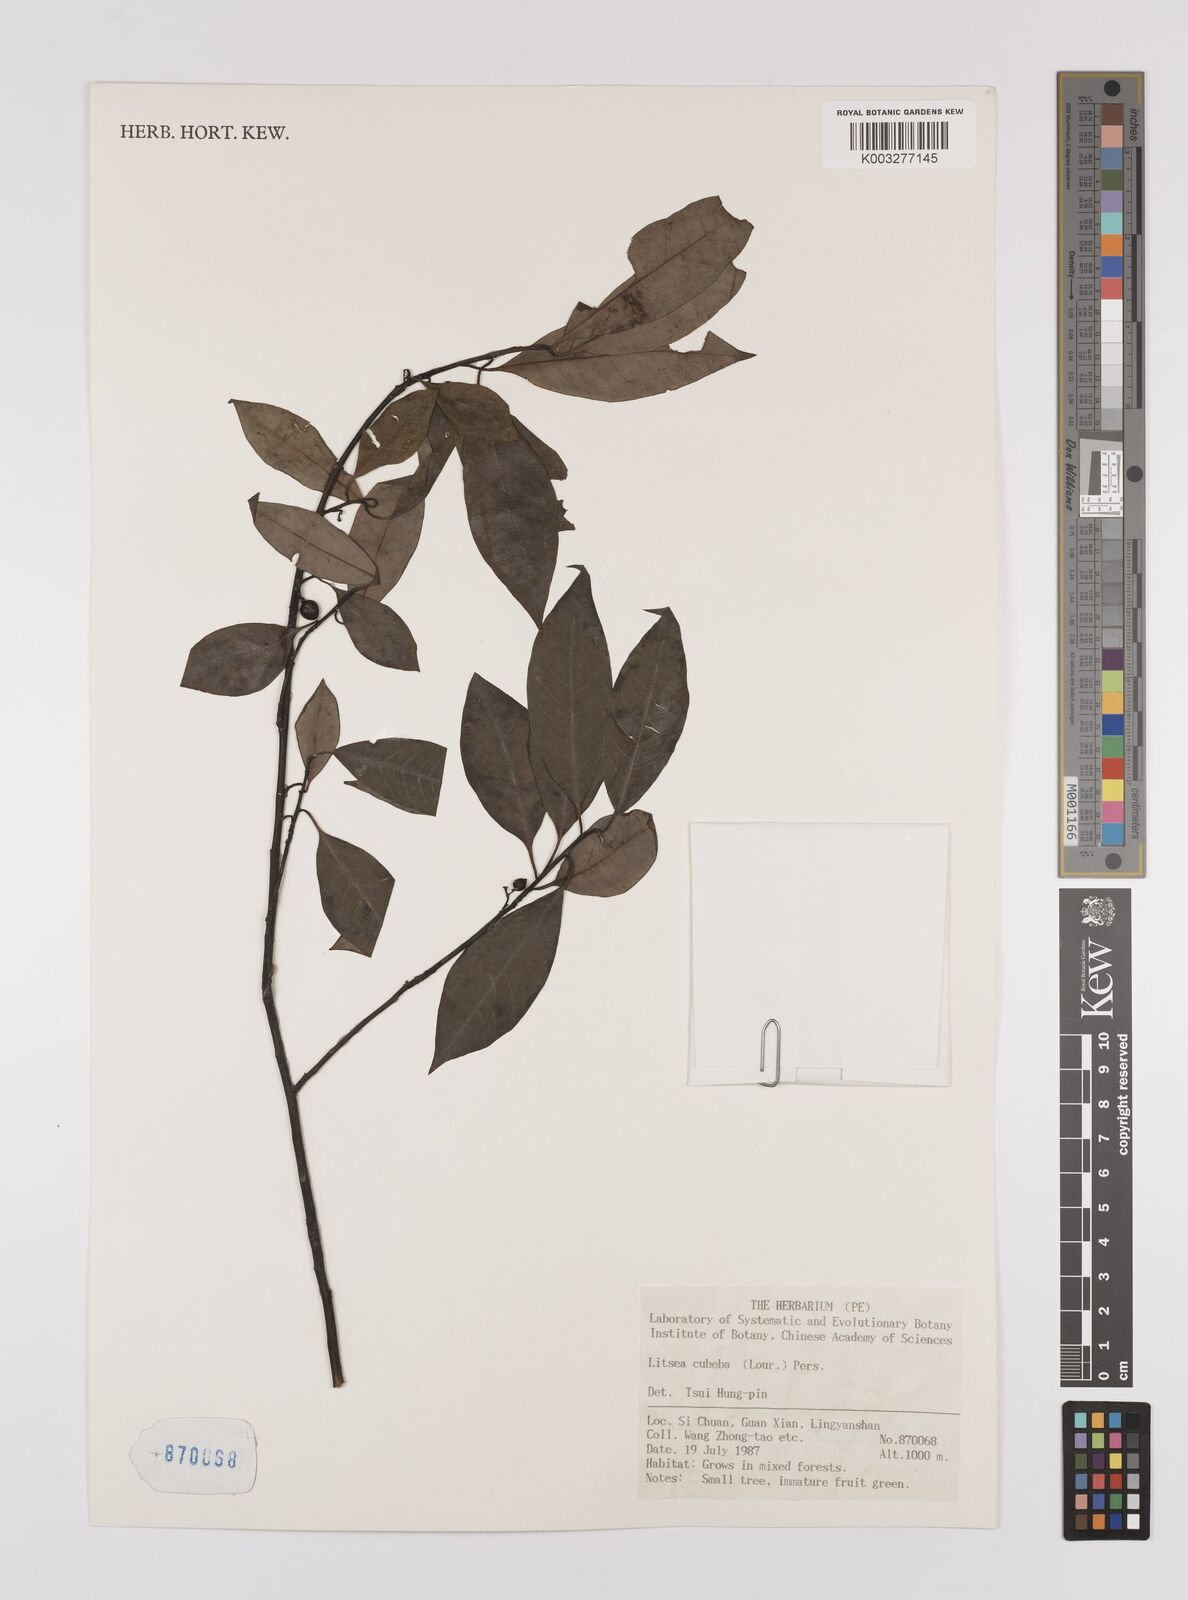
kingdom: Plantae
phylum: Tracheophyta
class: Magnoliopsida
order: Laurales
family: Lauraceae
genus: Litsea
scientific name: Litsea cubeba
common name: Mountain-pepper
